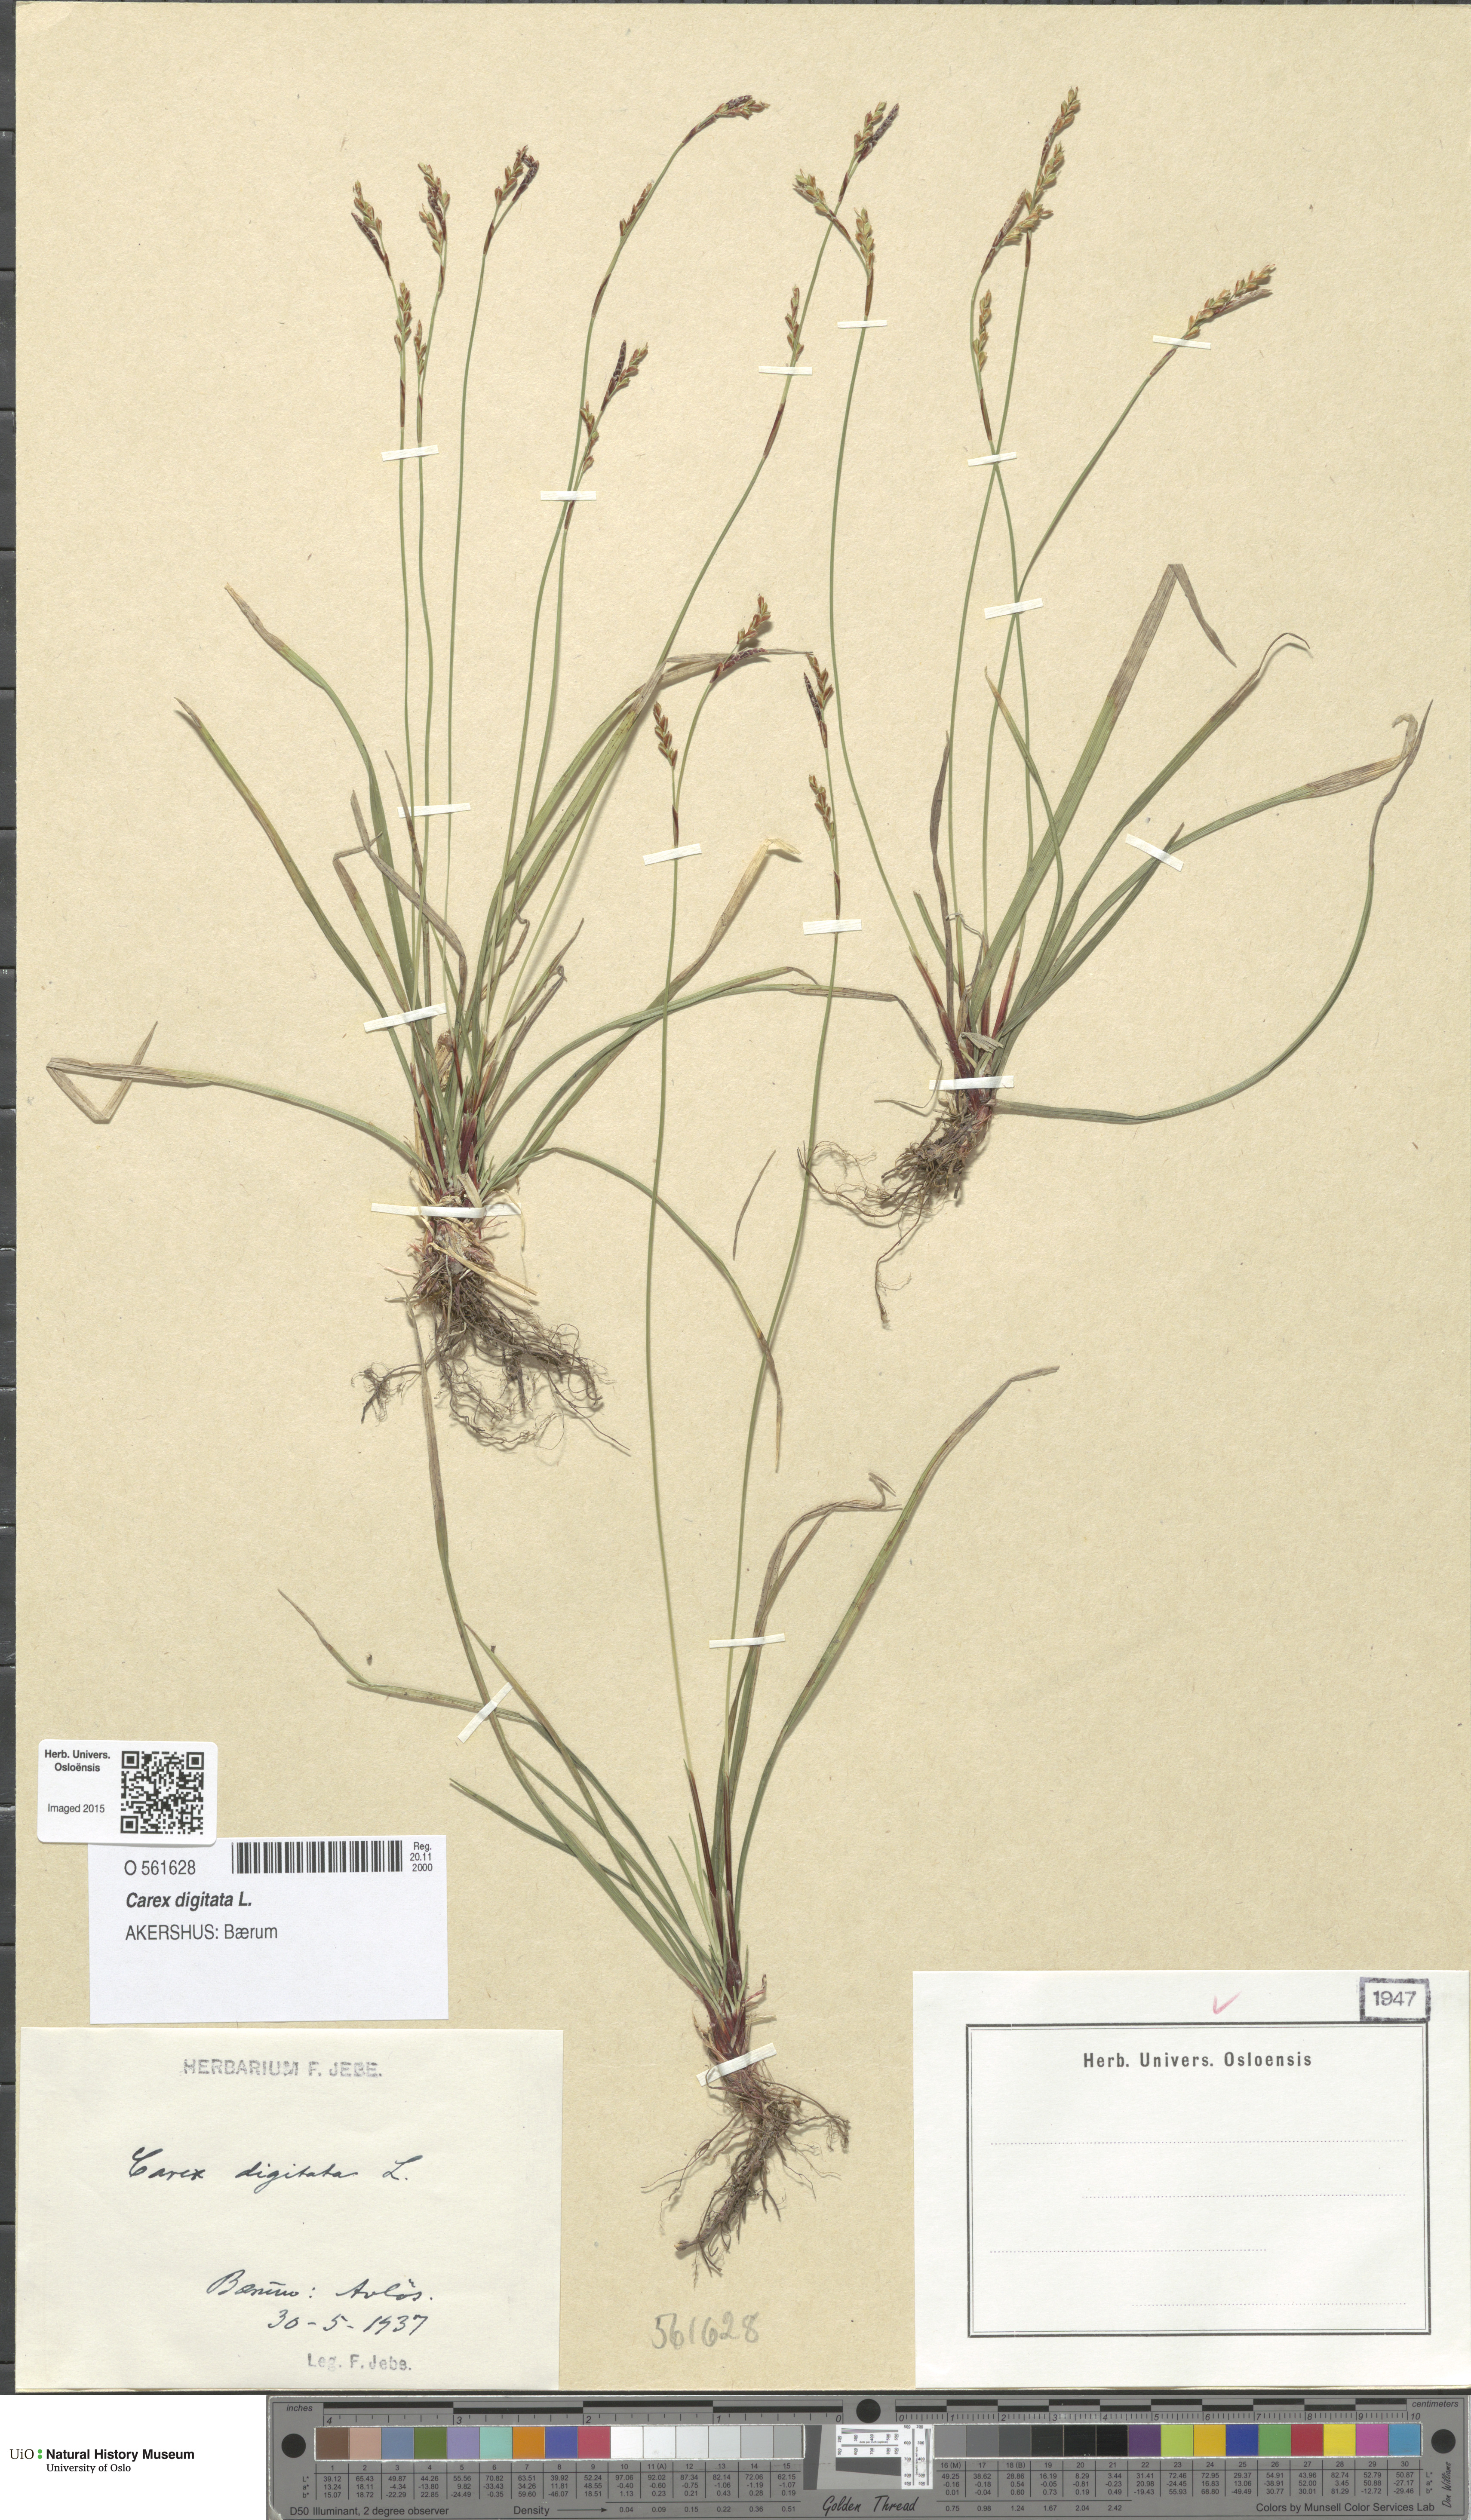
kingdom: Plantae
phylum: Tracheophyta
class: Liliopsida
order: Poales
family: Cyperaceae
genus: Carex
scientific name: Carex digitata
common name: Fingered sedge
